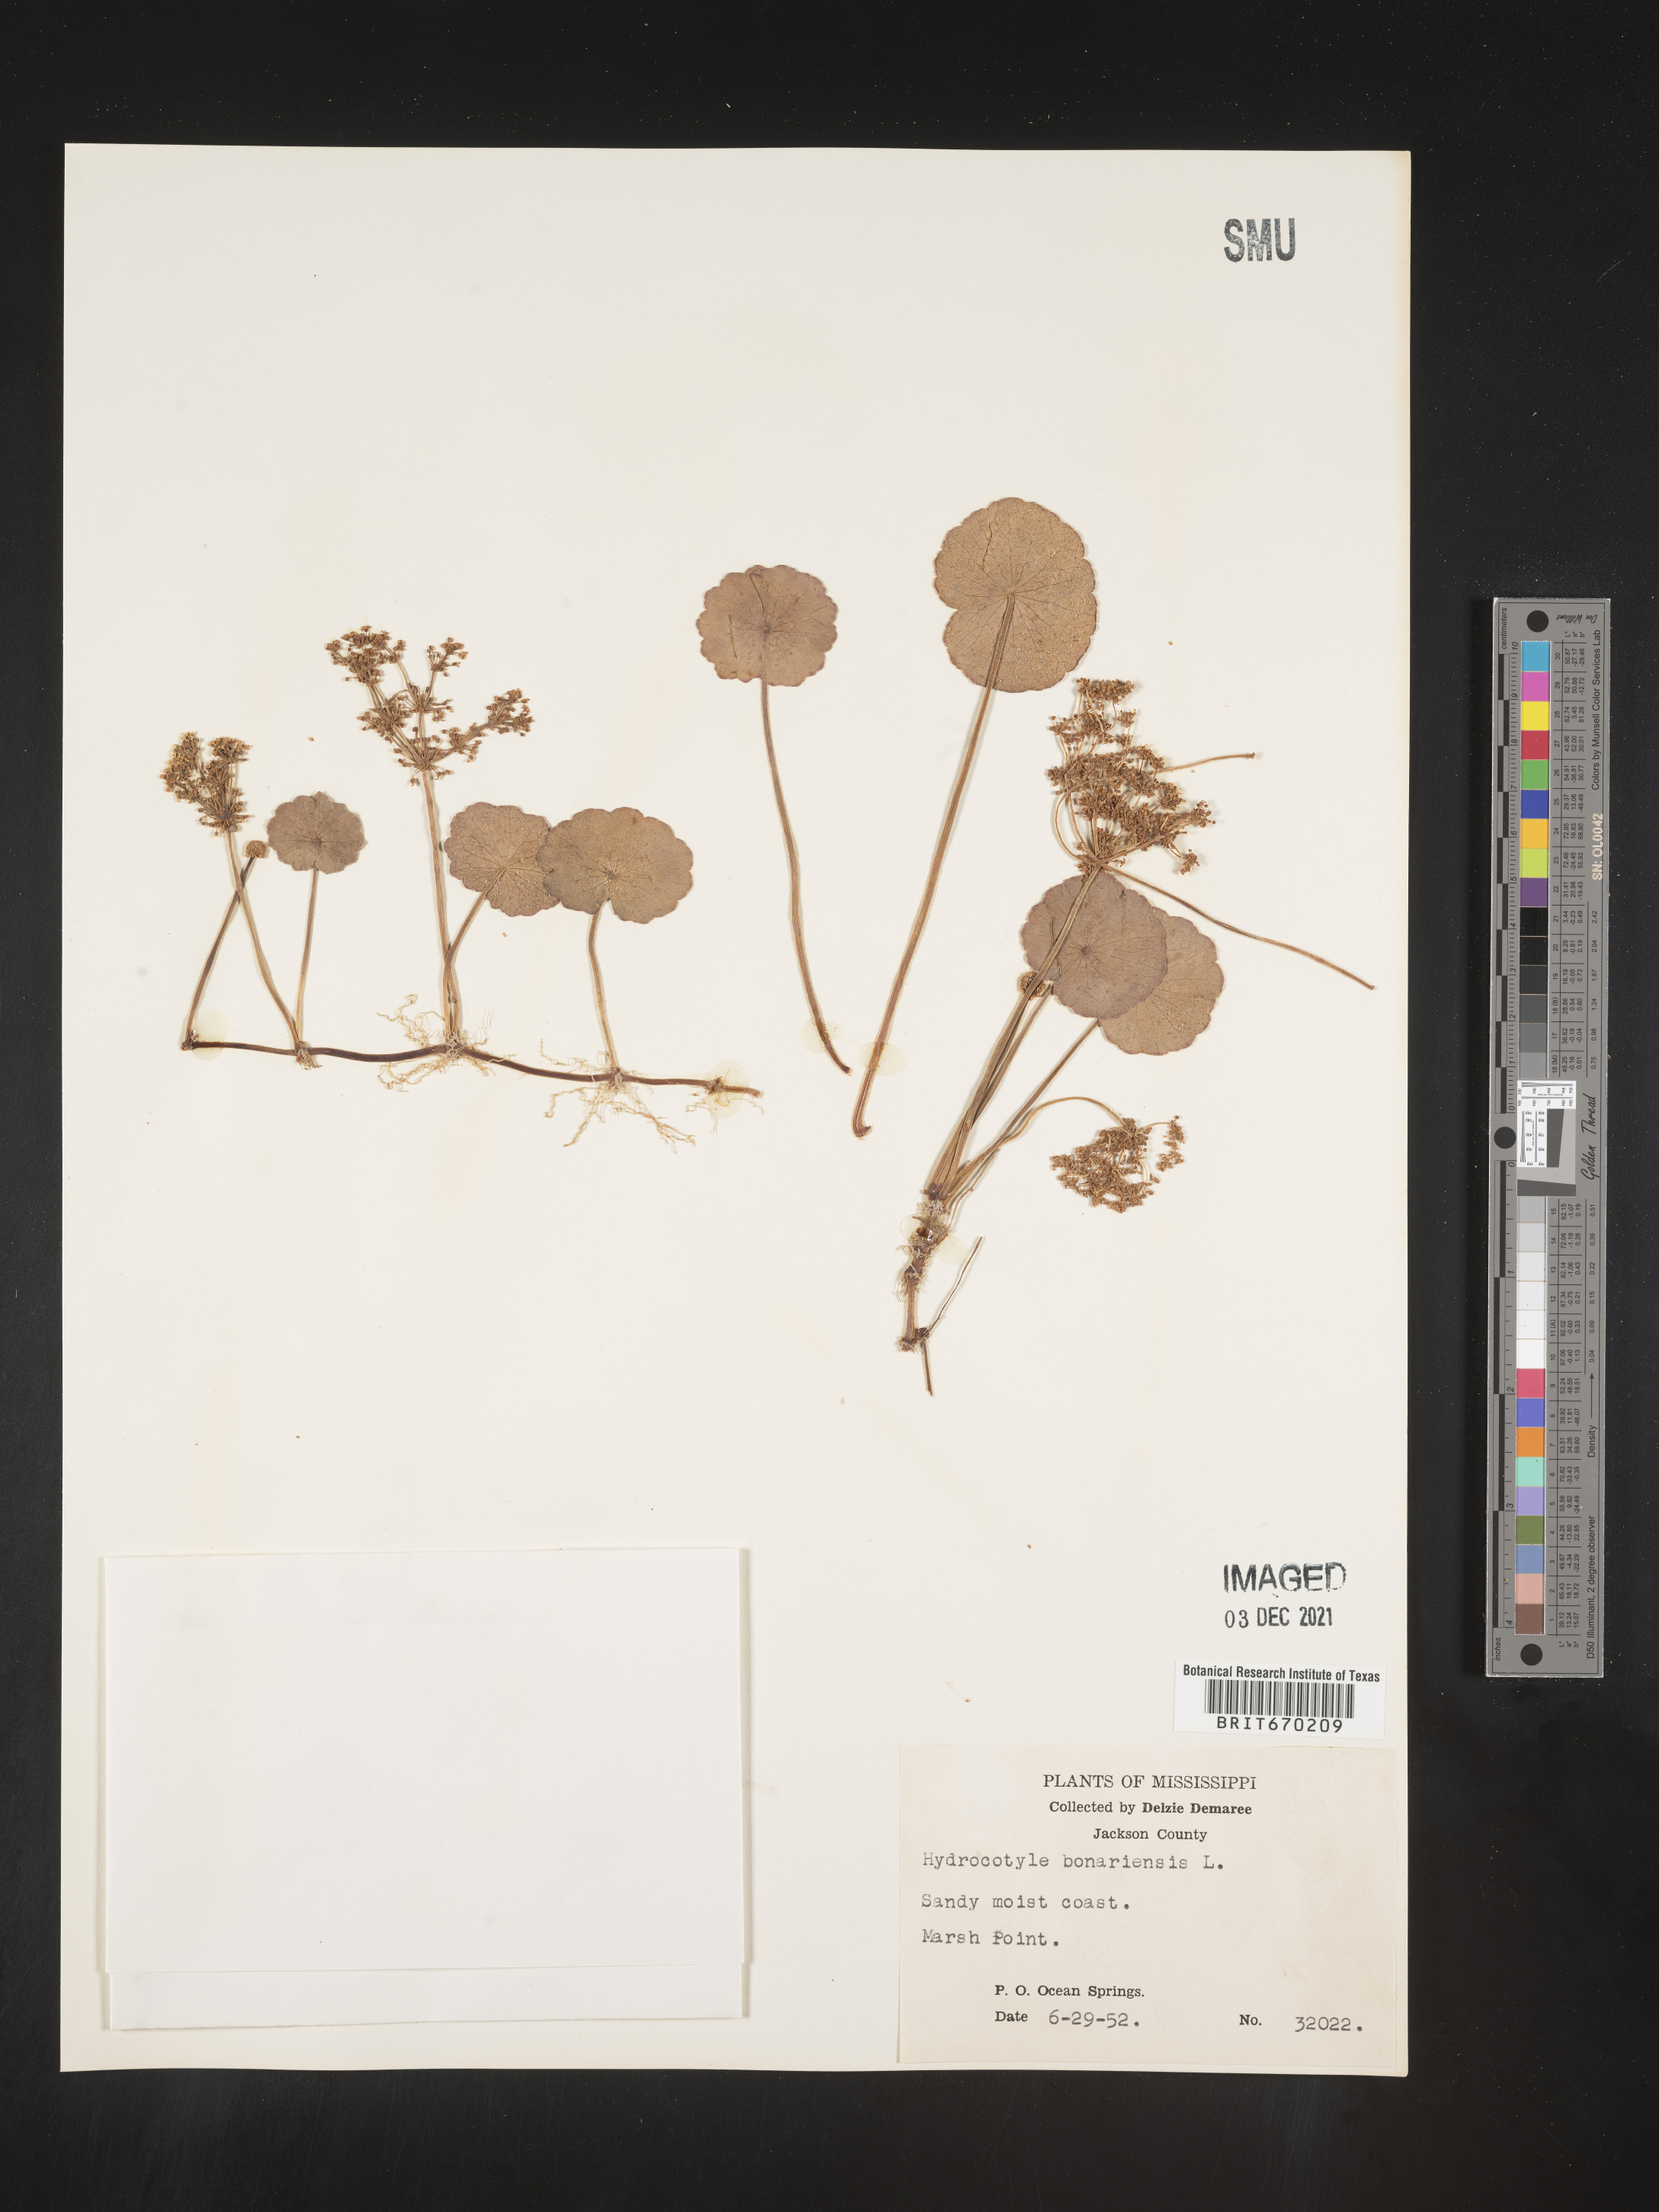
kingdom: Plantae
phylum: Tracheophyta
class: Magnoliopsida
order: Apiales
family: Araliaceae
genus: Hydrocotyle
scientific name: Hydrocotyle bonariensis
